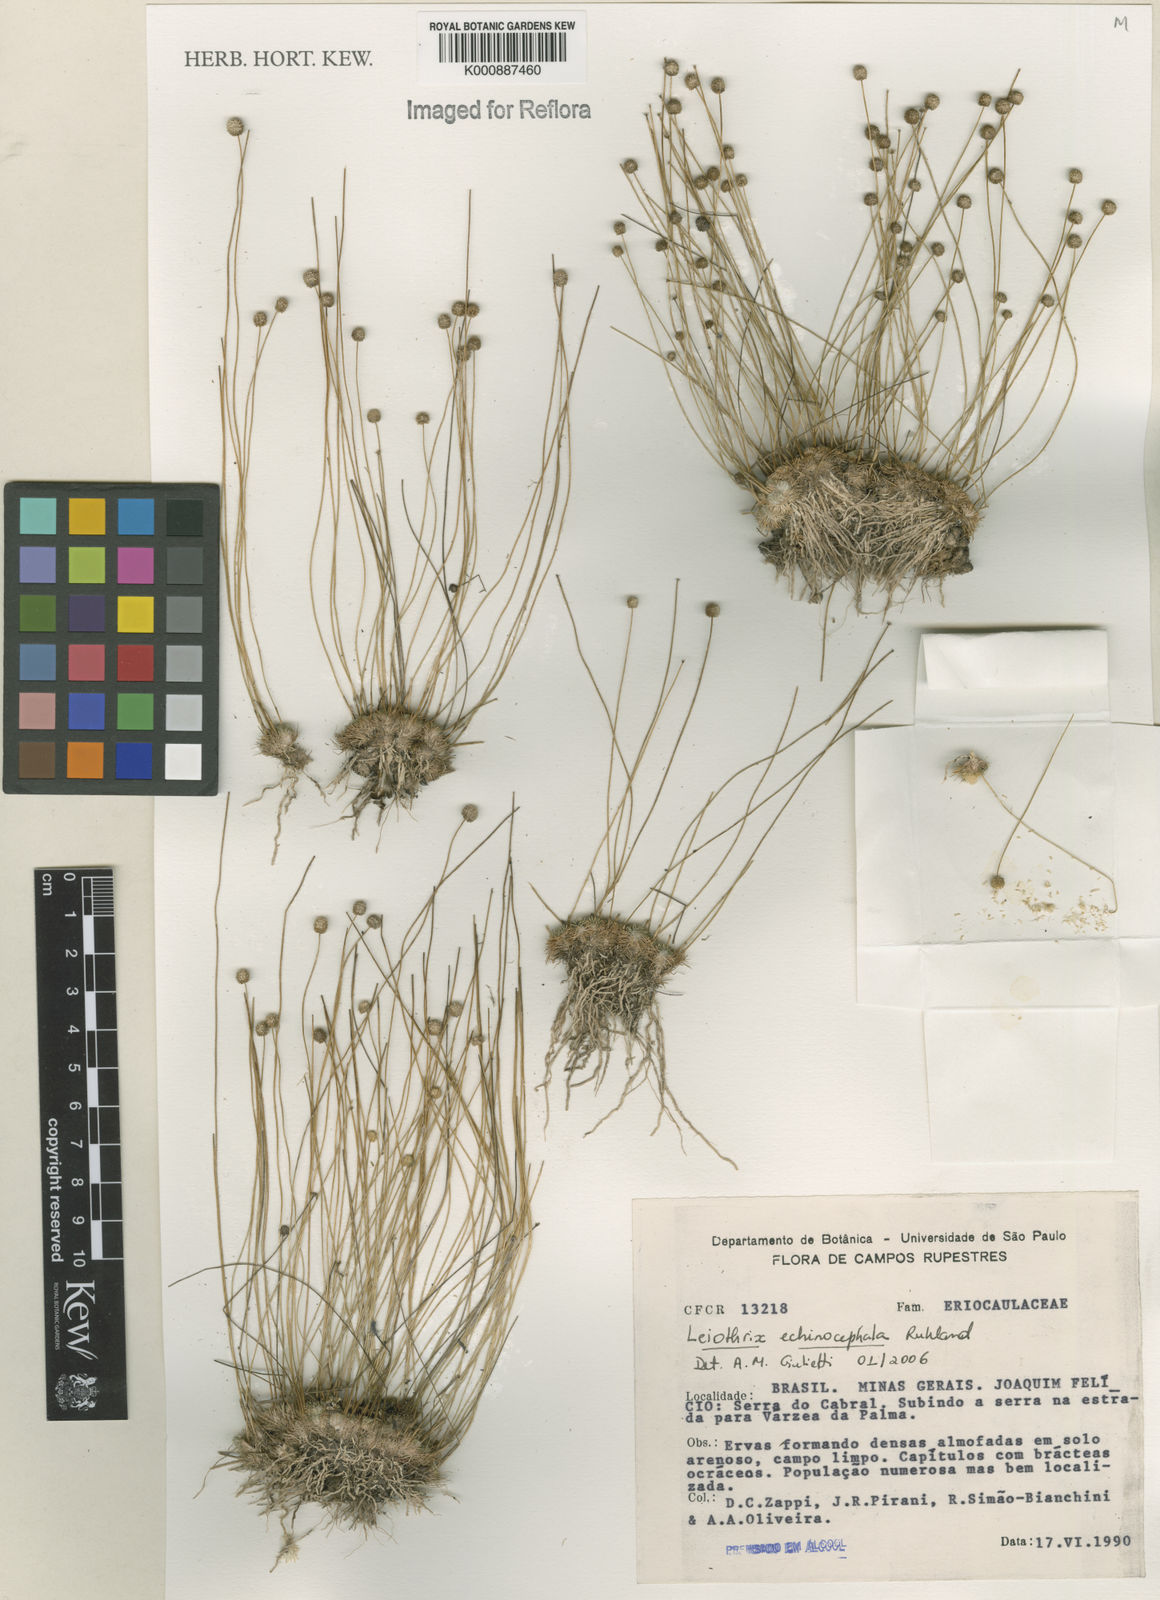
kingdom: Plantae
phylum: Tracheophyta
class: Liliopsida
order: Poales
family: Eriocaulaceae
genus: Leiothrix
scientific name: Leiothrix echinocephala
